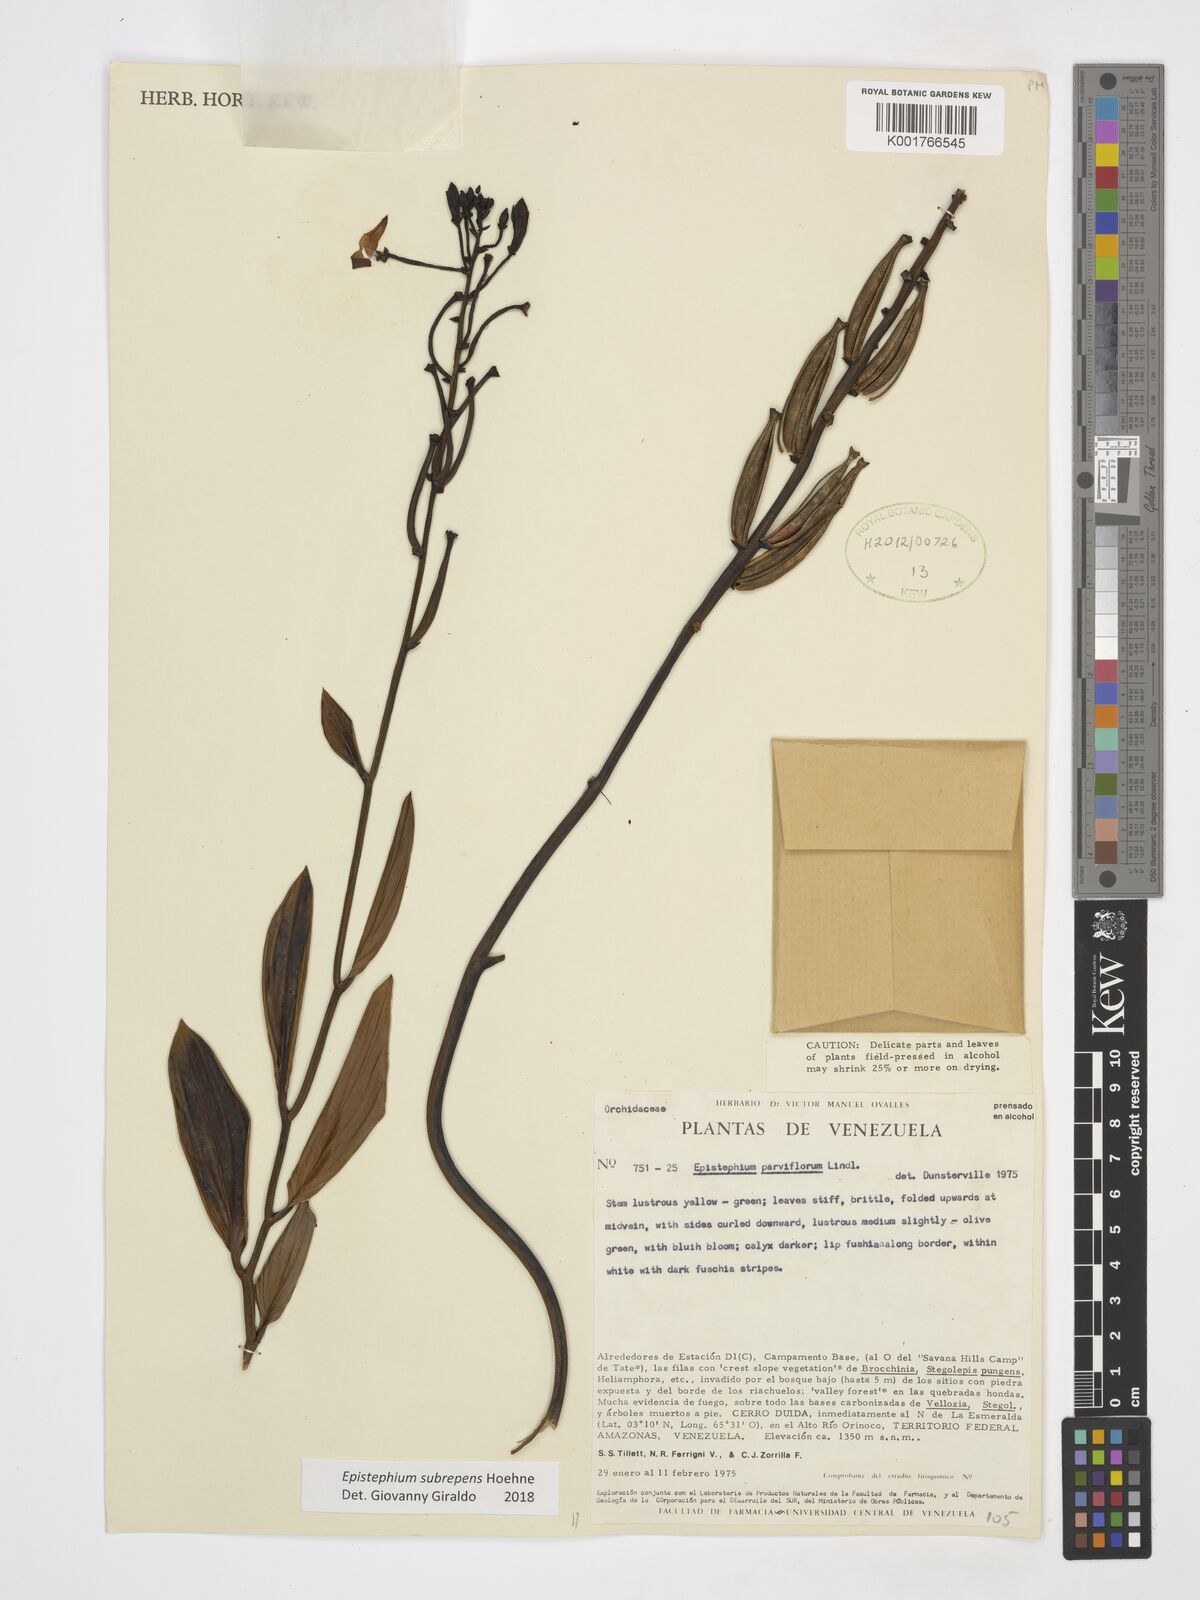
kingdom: Plantae
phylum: Tracheophyta
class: Liliopsida
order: Asparagales
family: Orchidaceae
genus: Epistephium
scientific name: Epistephium subrepens
